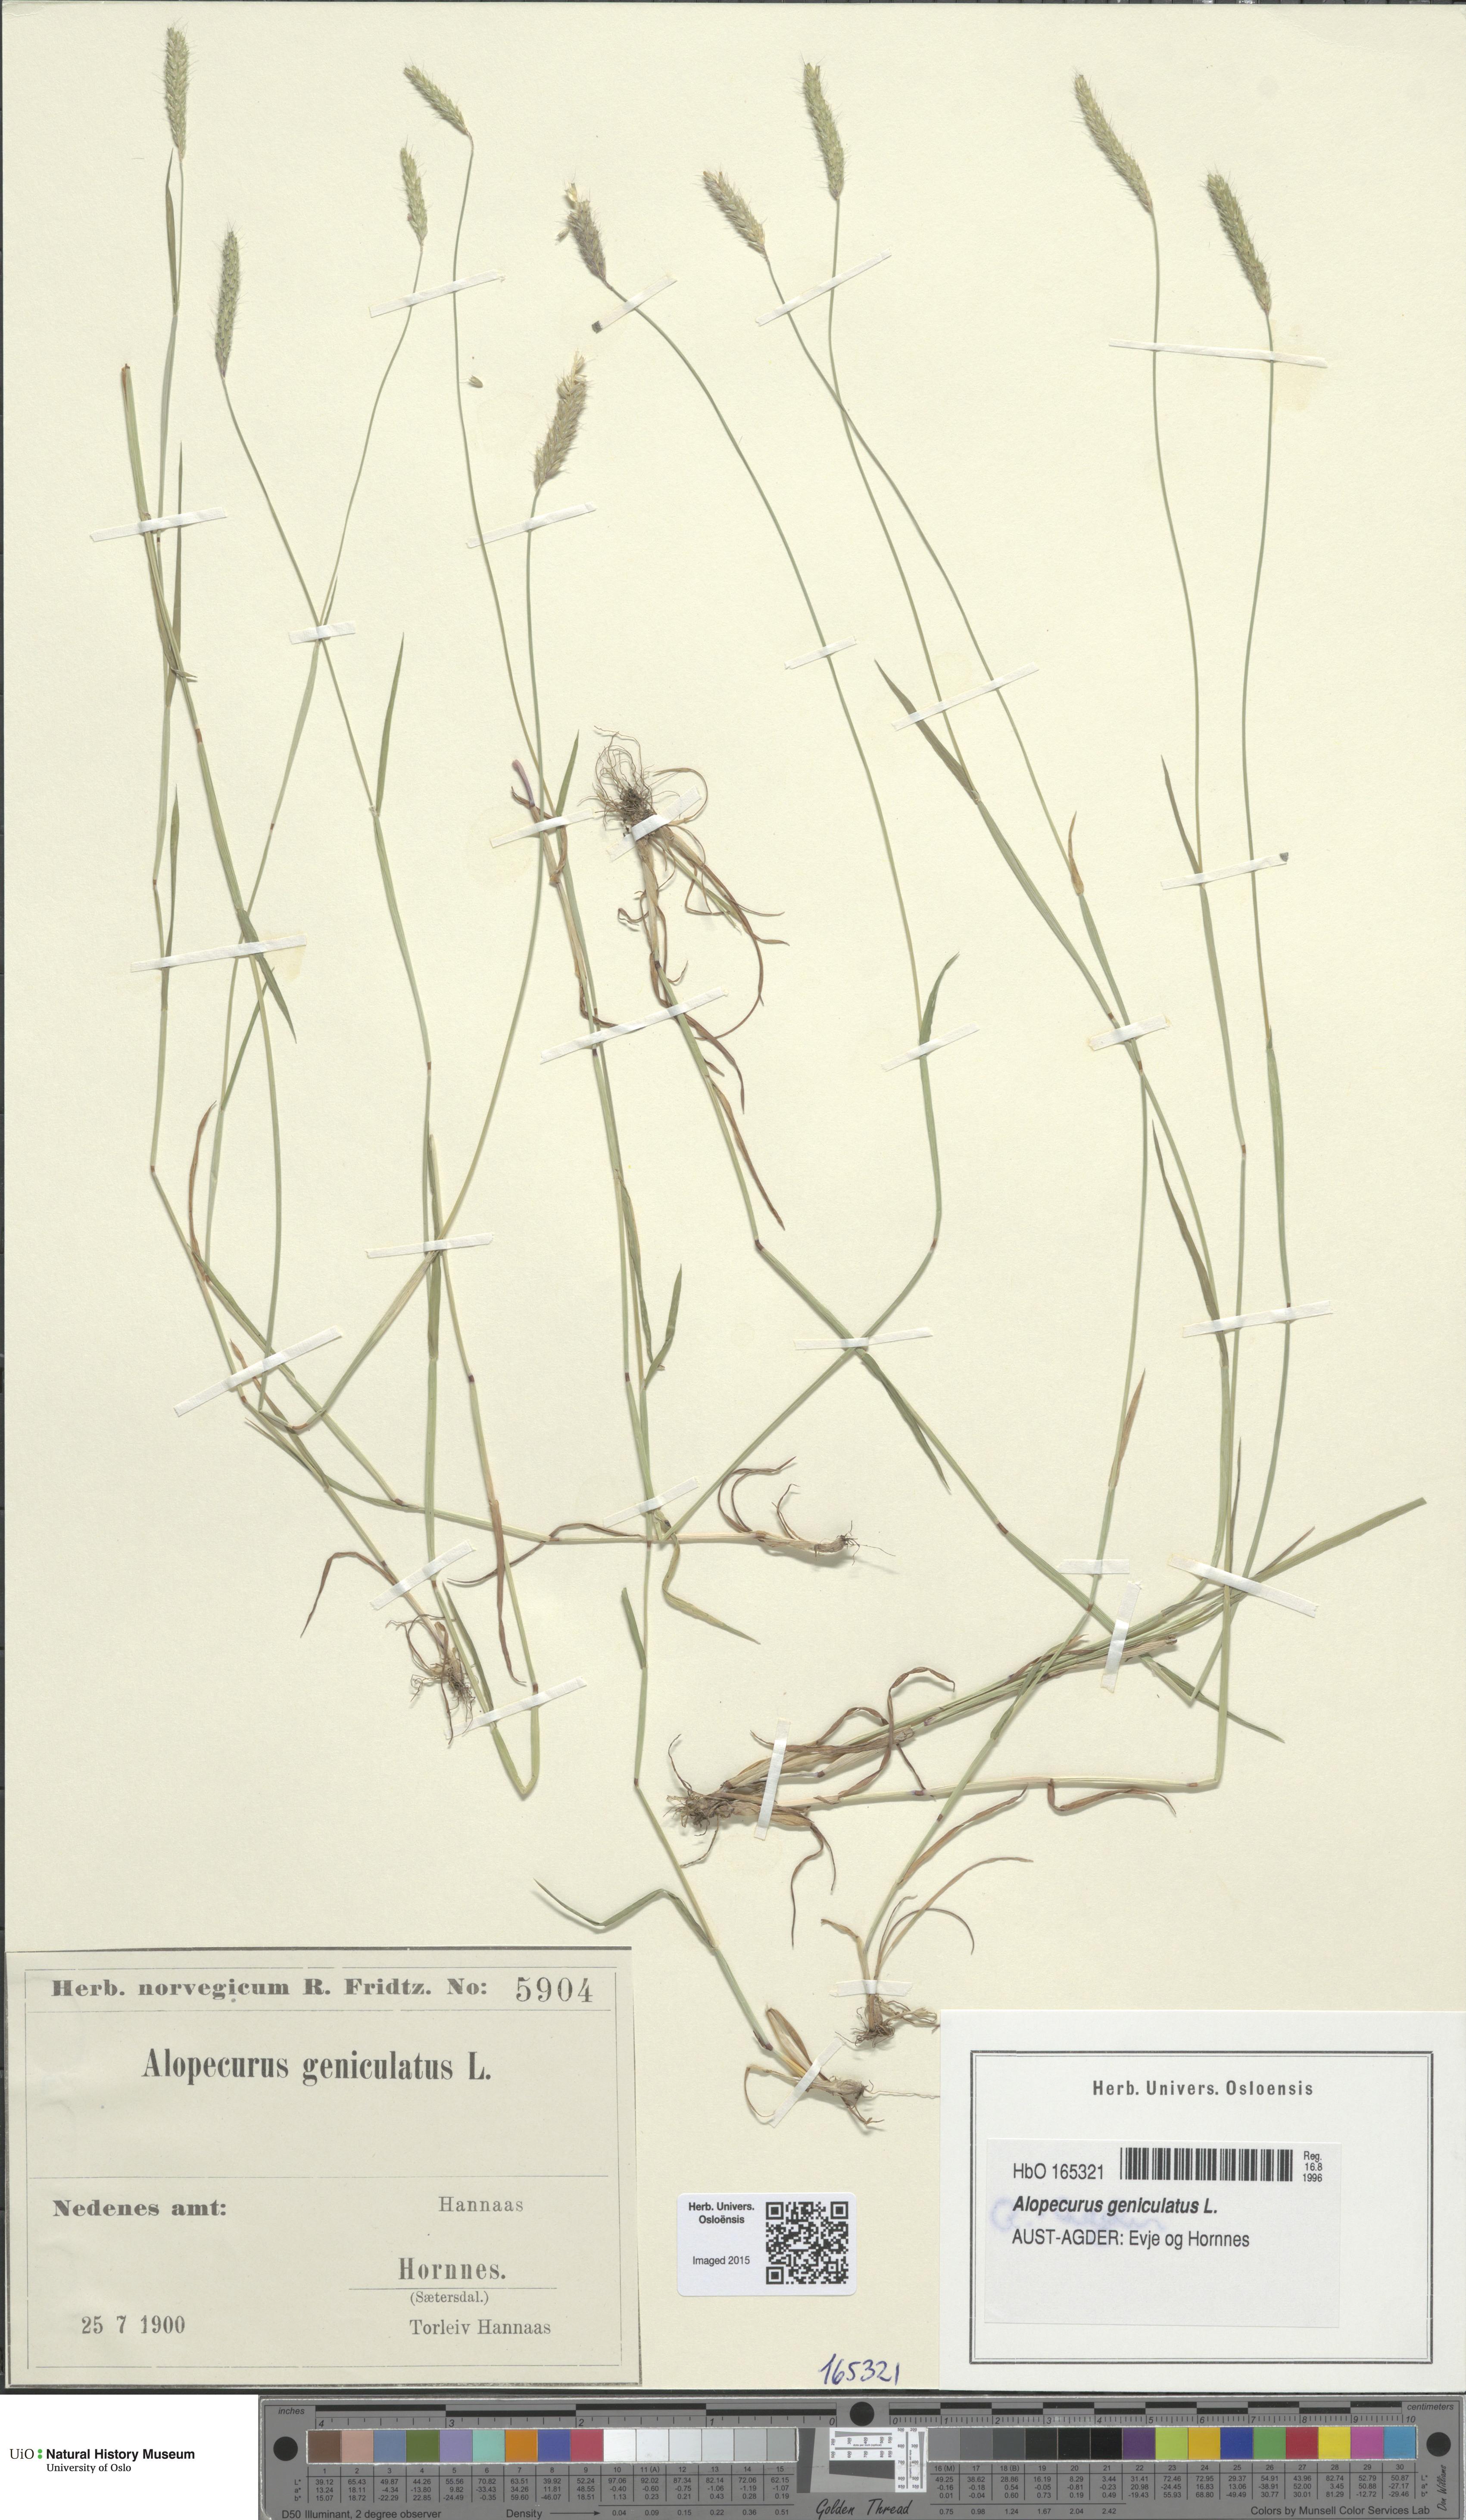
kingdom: Plantae
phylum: Tracheophyta
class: Liliopsida
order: Poales
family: Poaceae
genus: Alopecurus
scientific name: Alopecurus geniculatus
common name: Water foxtail
